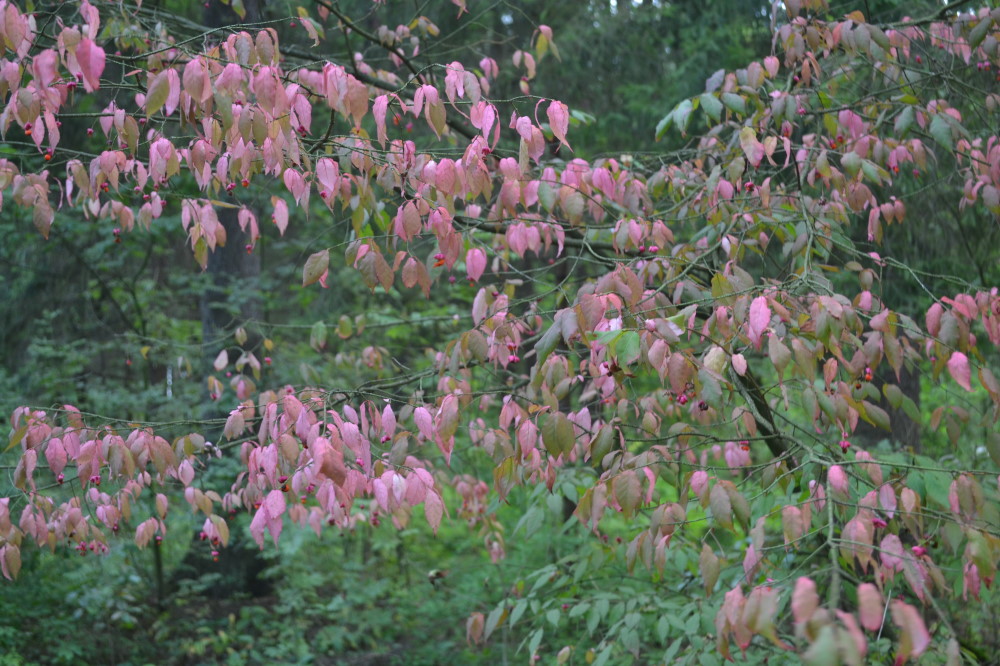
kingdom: Plantae
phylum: Tracheophyta
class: Magnoliopsida
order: Celastrales
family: Celastraceae
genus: Euonymus
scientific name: Euonymus europaeus
